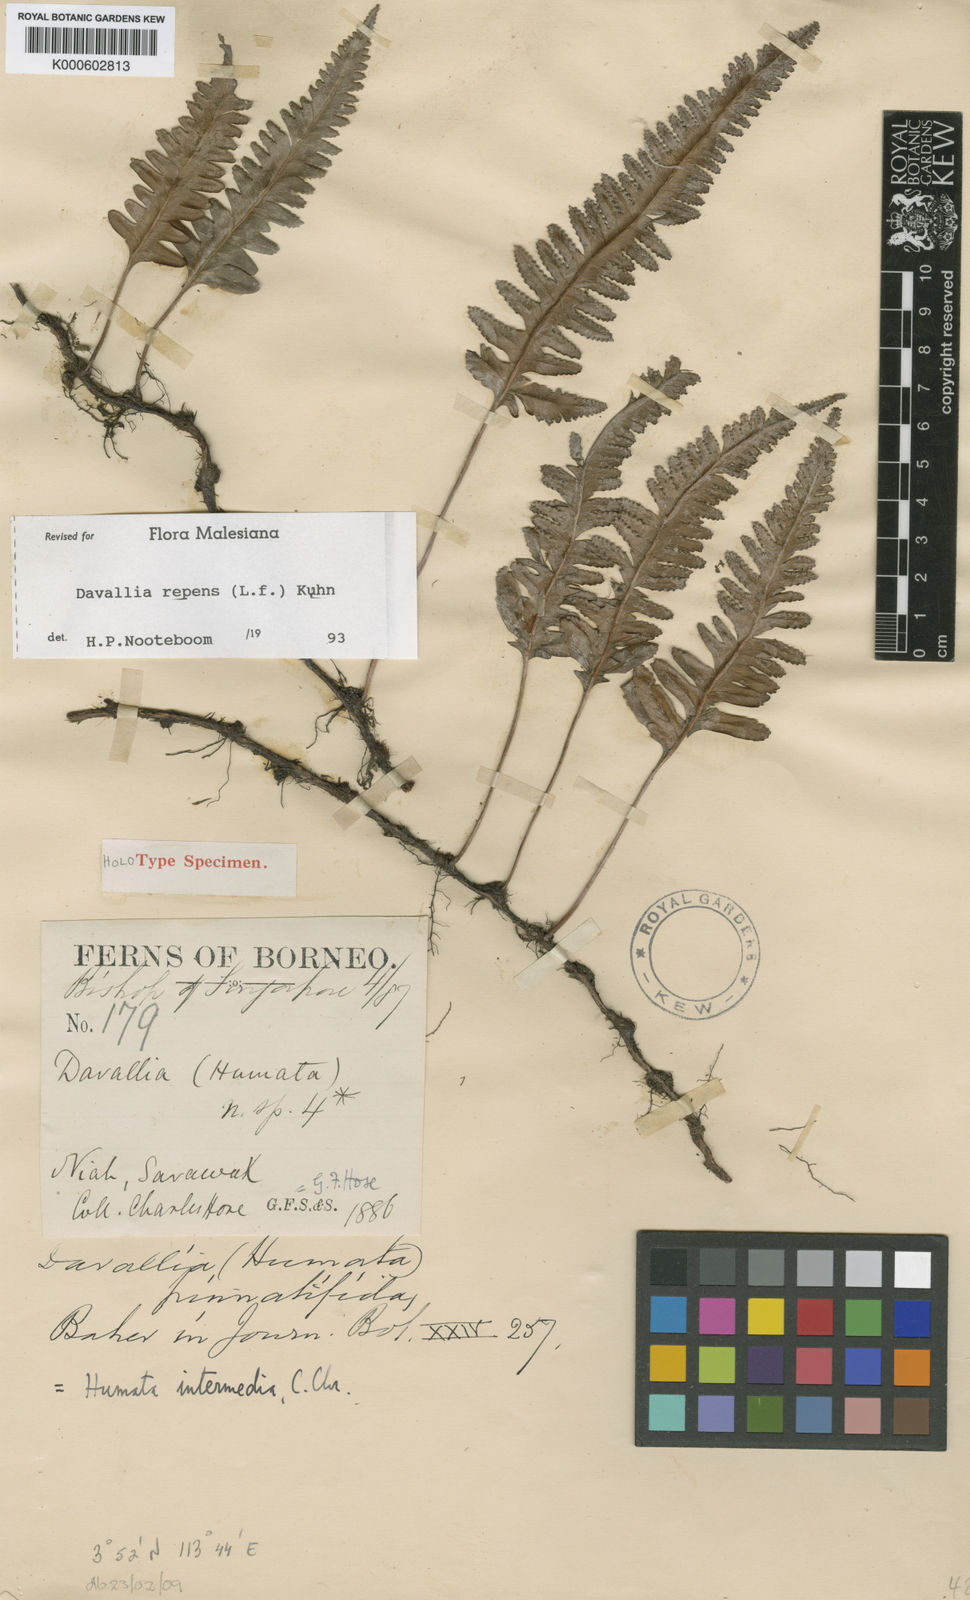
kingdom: Plantae
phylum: Tracheophyta
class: Polypodiopsida
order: Polypodiales
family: Davalliaceae
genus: Davallia
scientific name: Davallia repens
